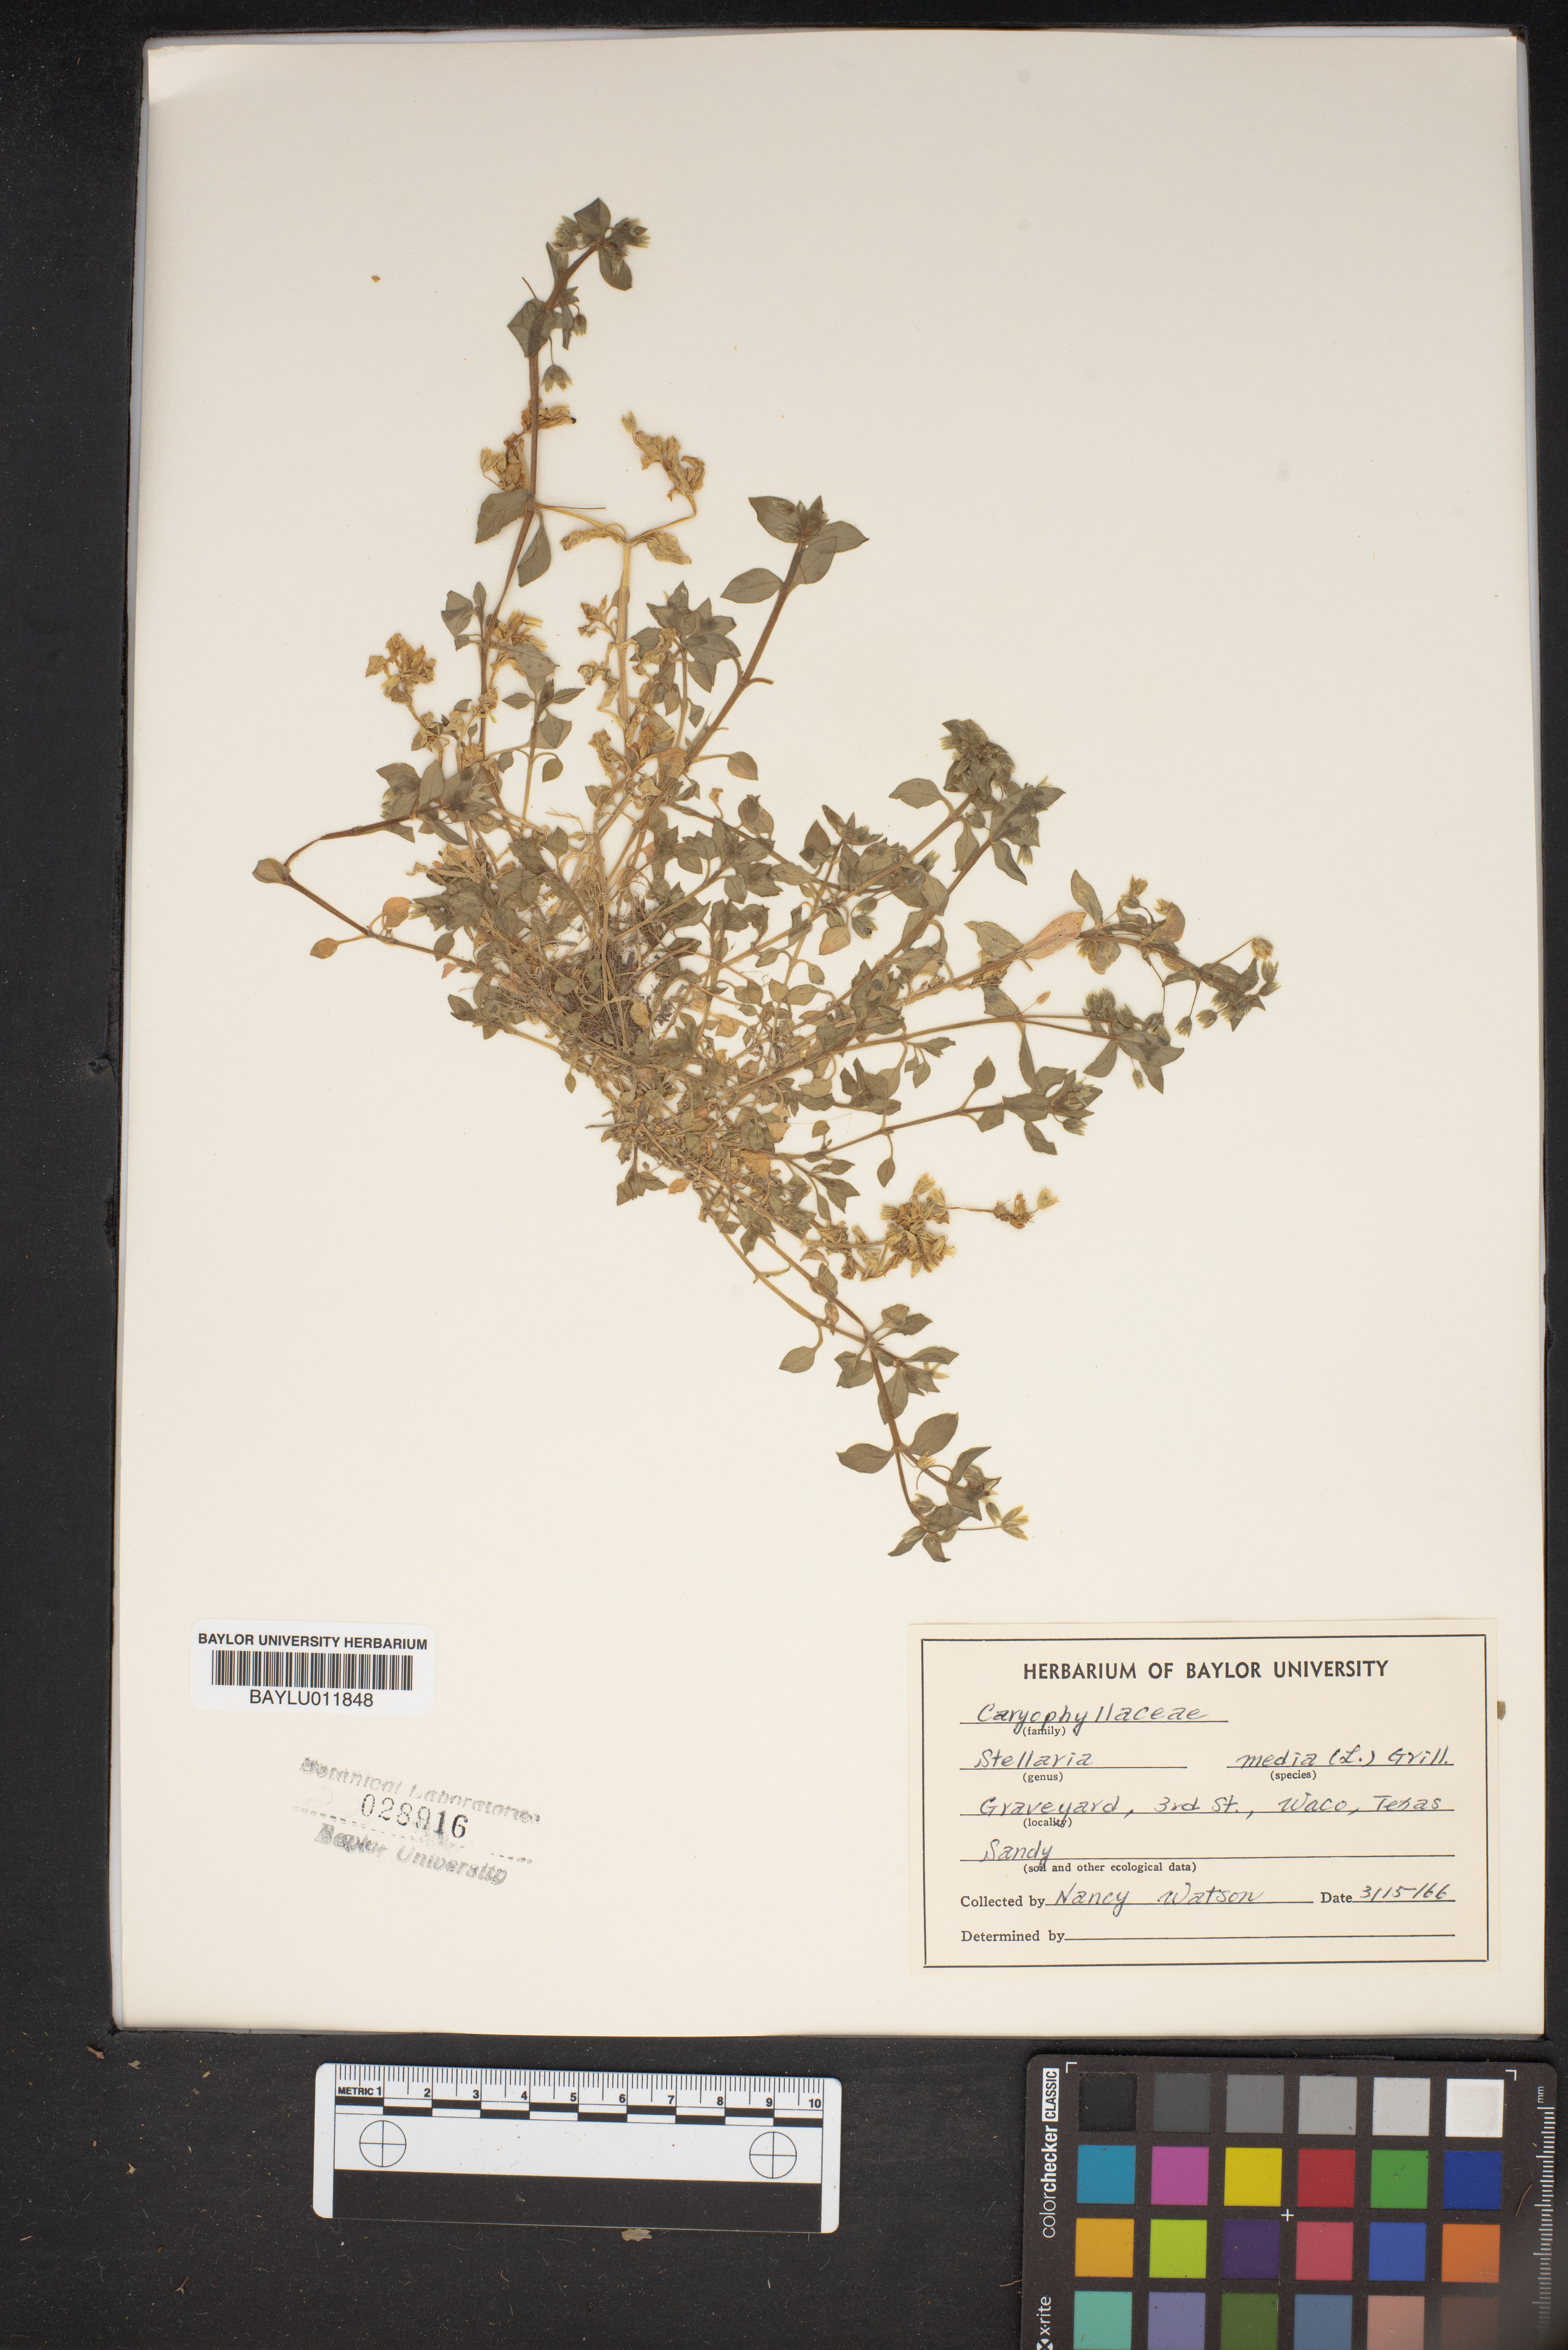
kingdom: Plantae
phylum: Tracheophyta
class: Magnoliopsida
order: Caryophyllales
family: Caryophyllaceae
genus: Stellaria
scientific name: Stellaria media
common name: Common chickweed
